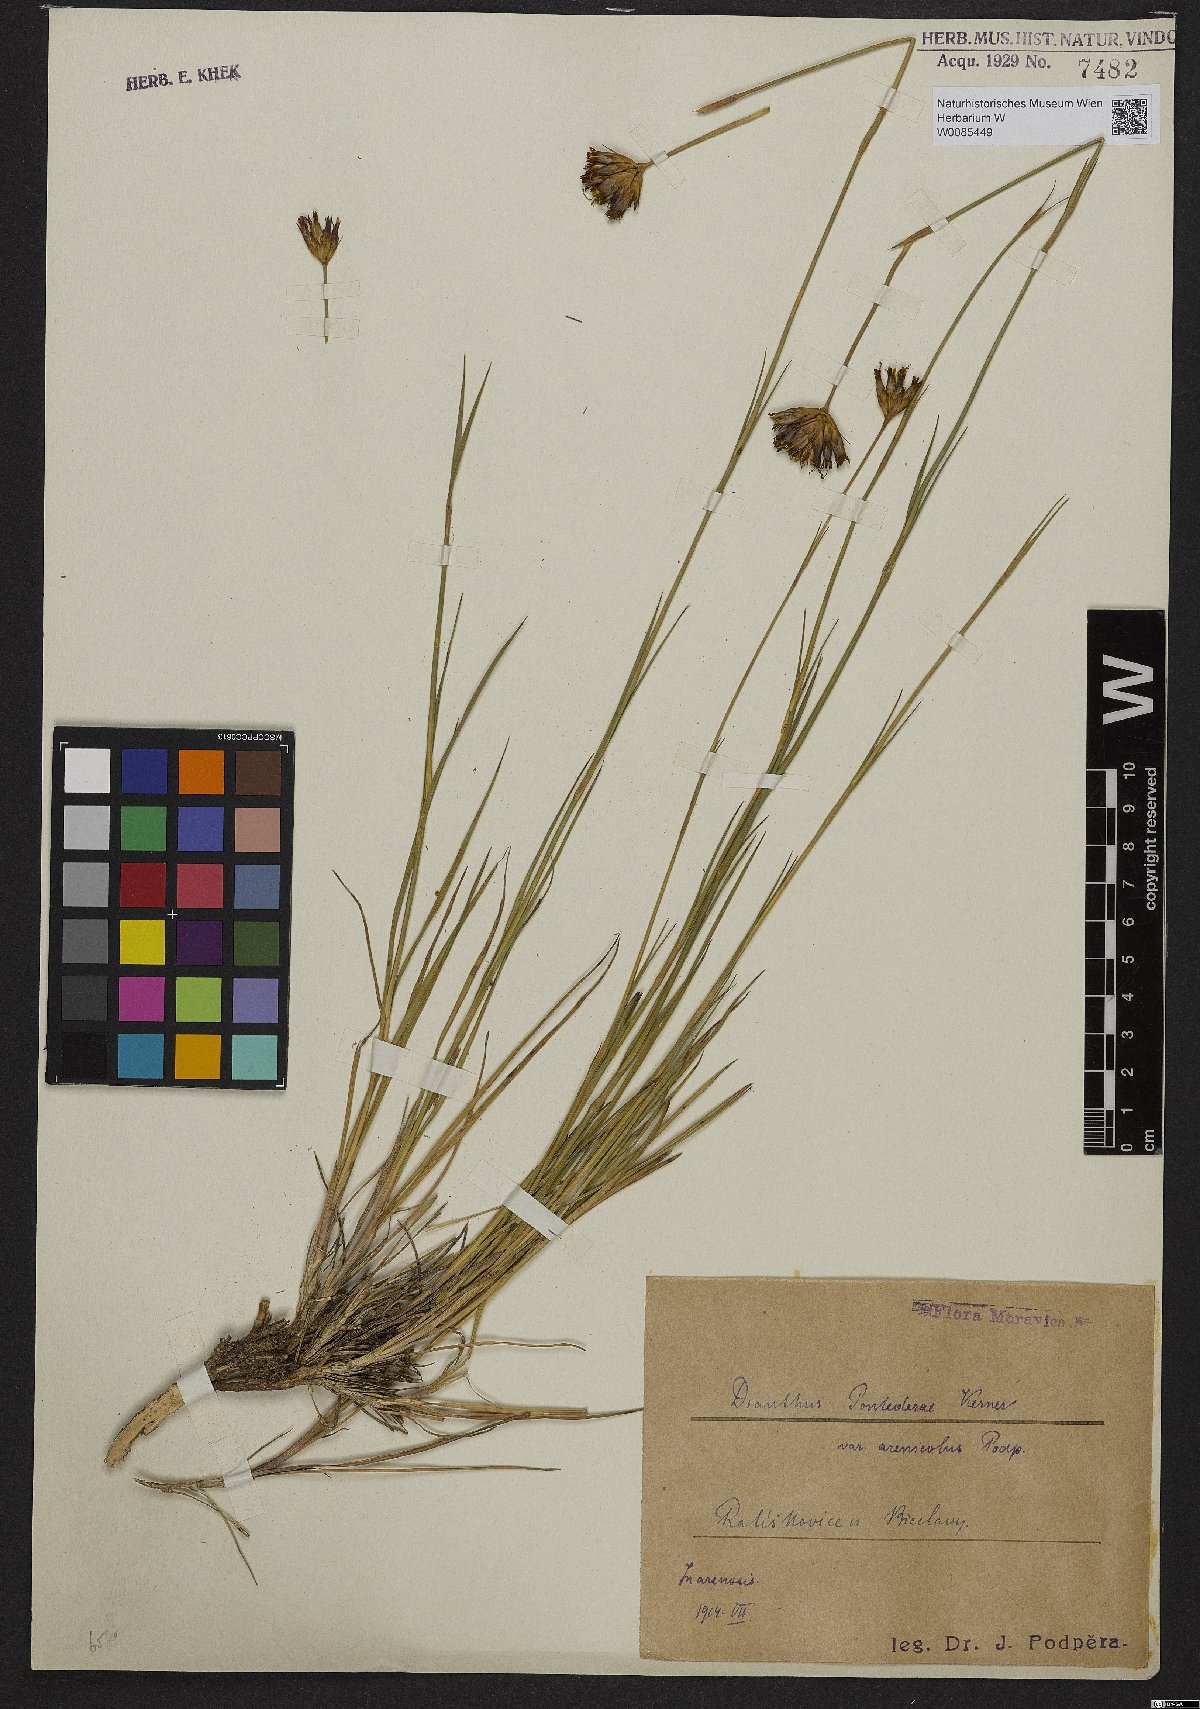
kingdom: Plantae
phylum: Tracheophyta
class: Magnoliopsida
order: Caryophyllales
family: Caryophyllaceae
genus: Dianthus
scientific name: Dianthus pontederae
